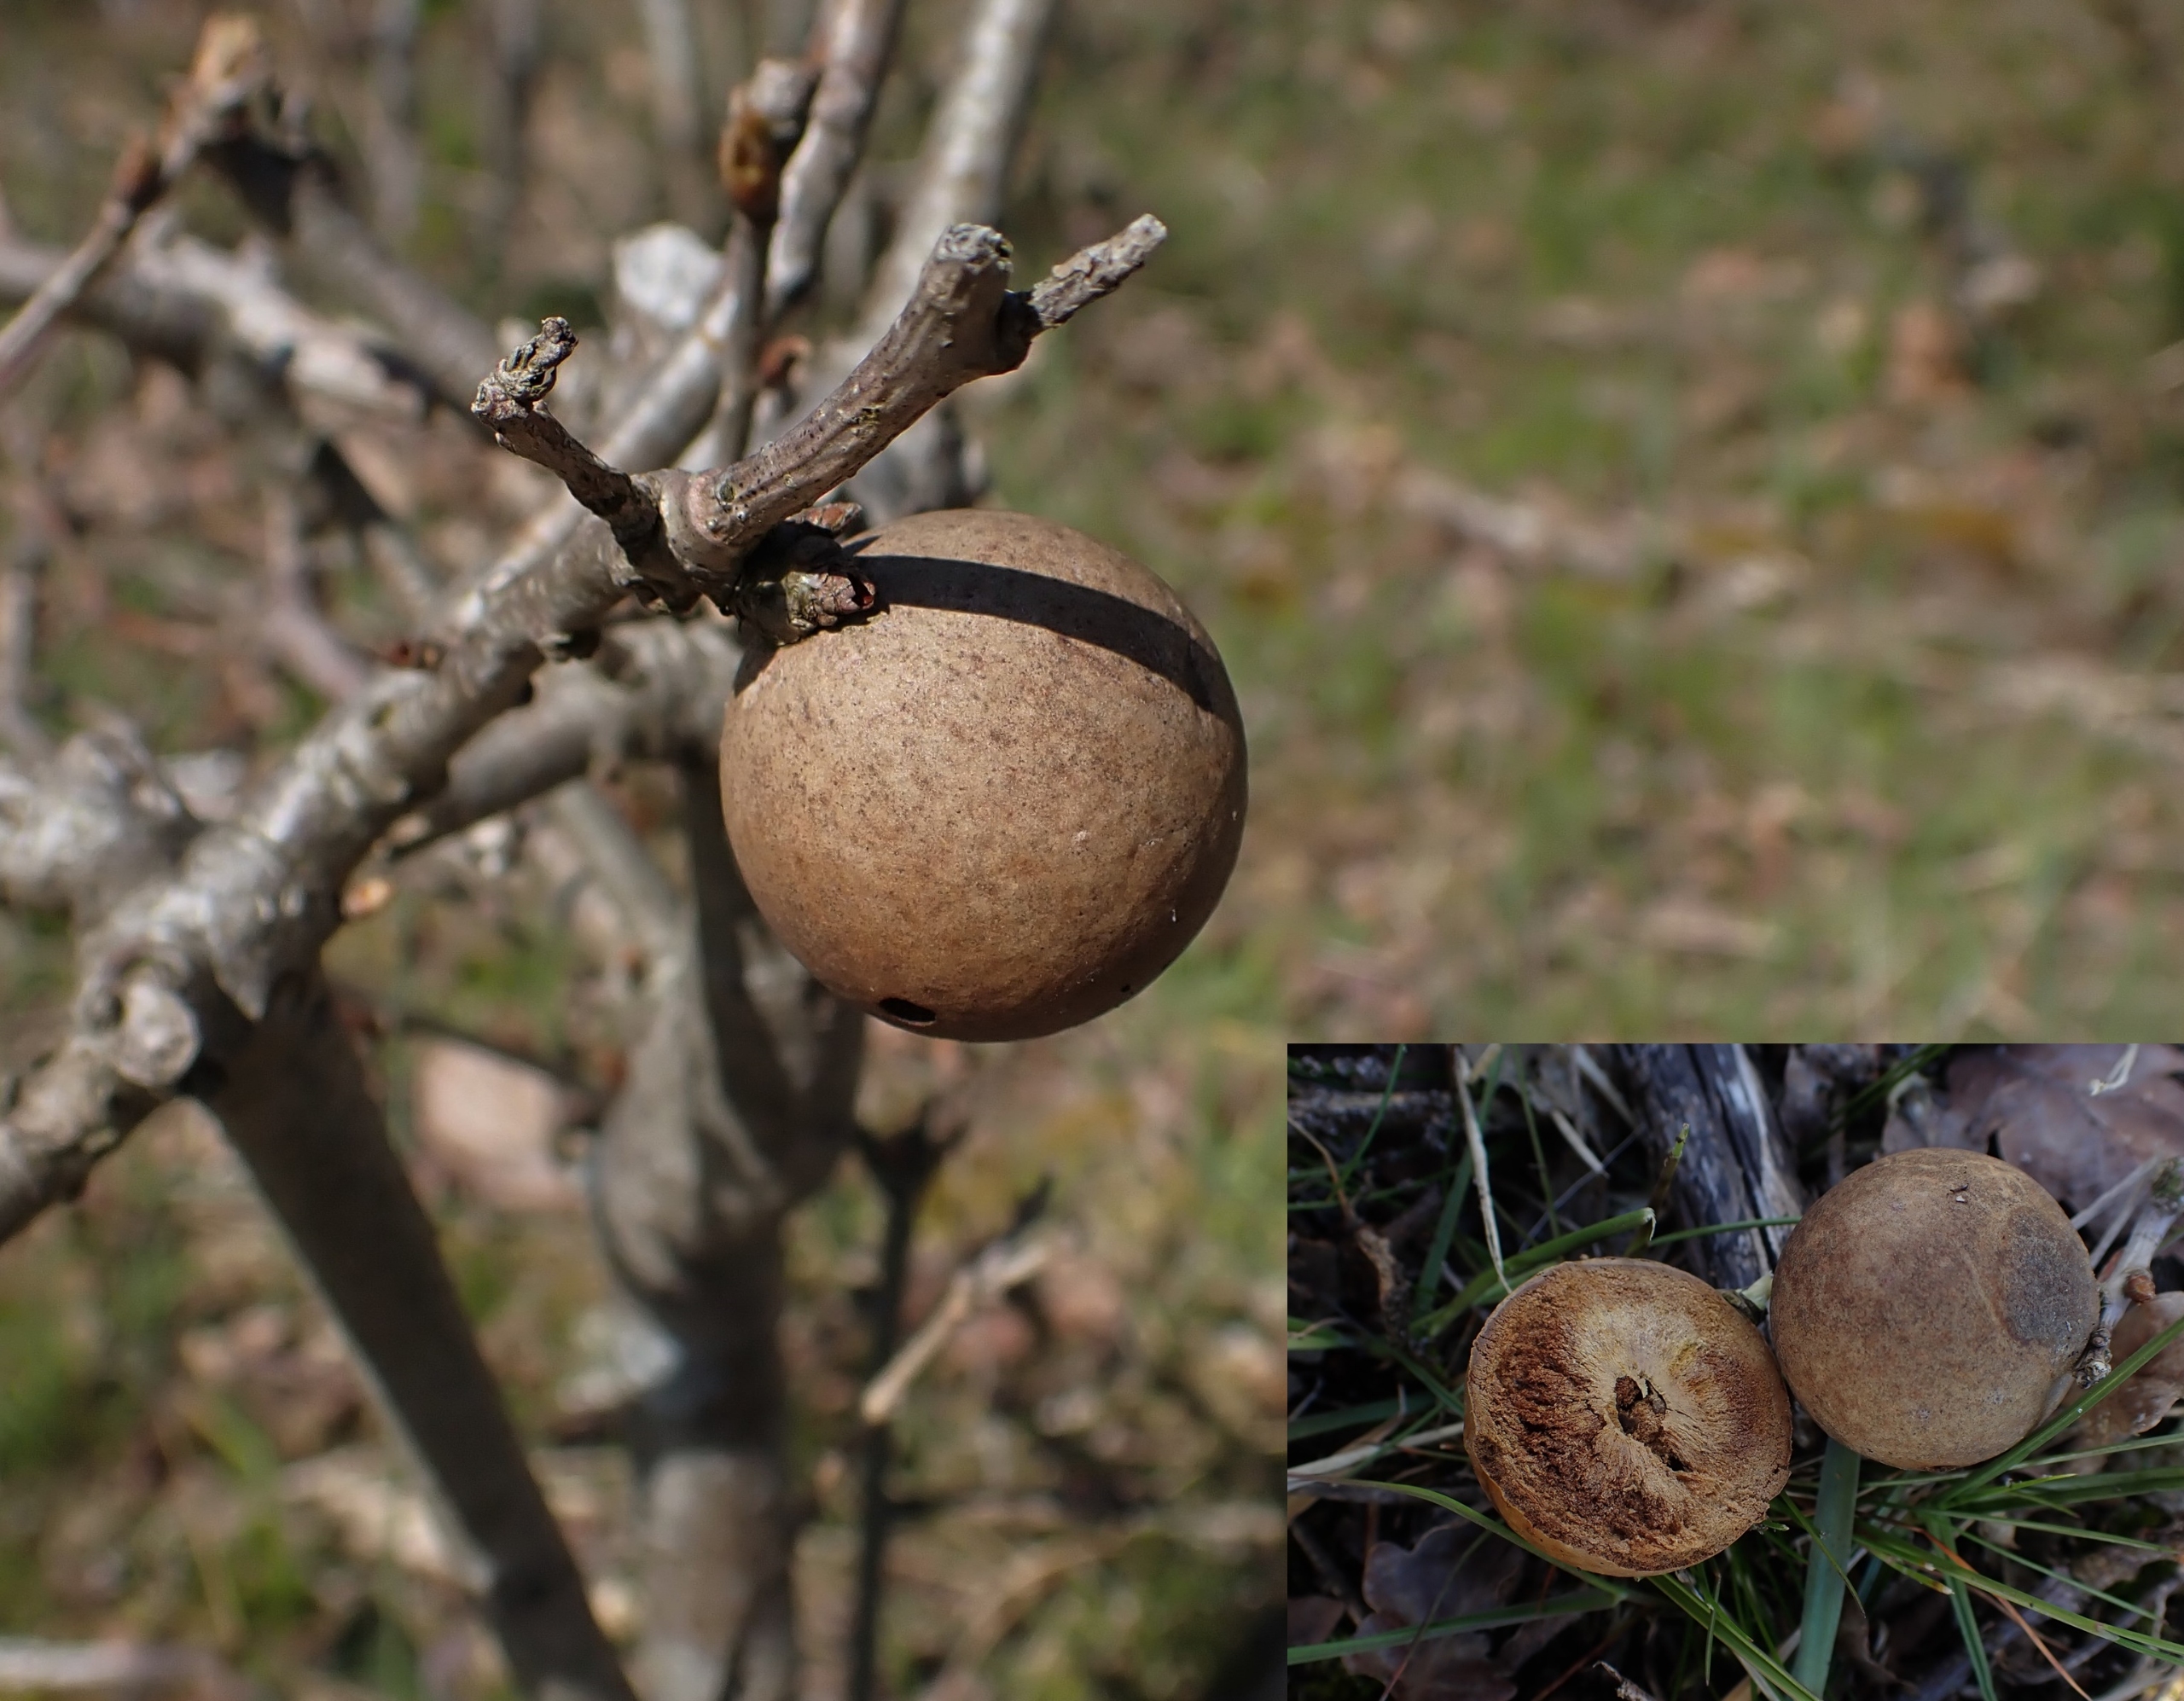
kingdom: Animalia
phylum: Arthropoda
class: Insecta
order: Hymenoptera
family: Cynipidae
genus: Andricus
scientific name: Andricus kollari
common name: Marmorkugle-galhveps
